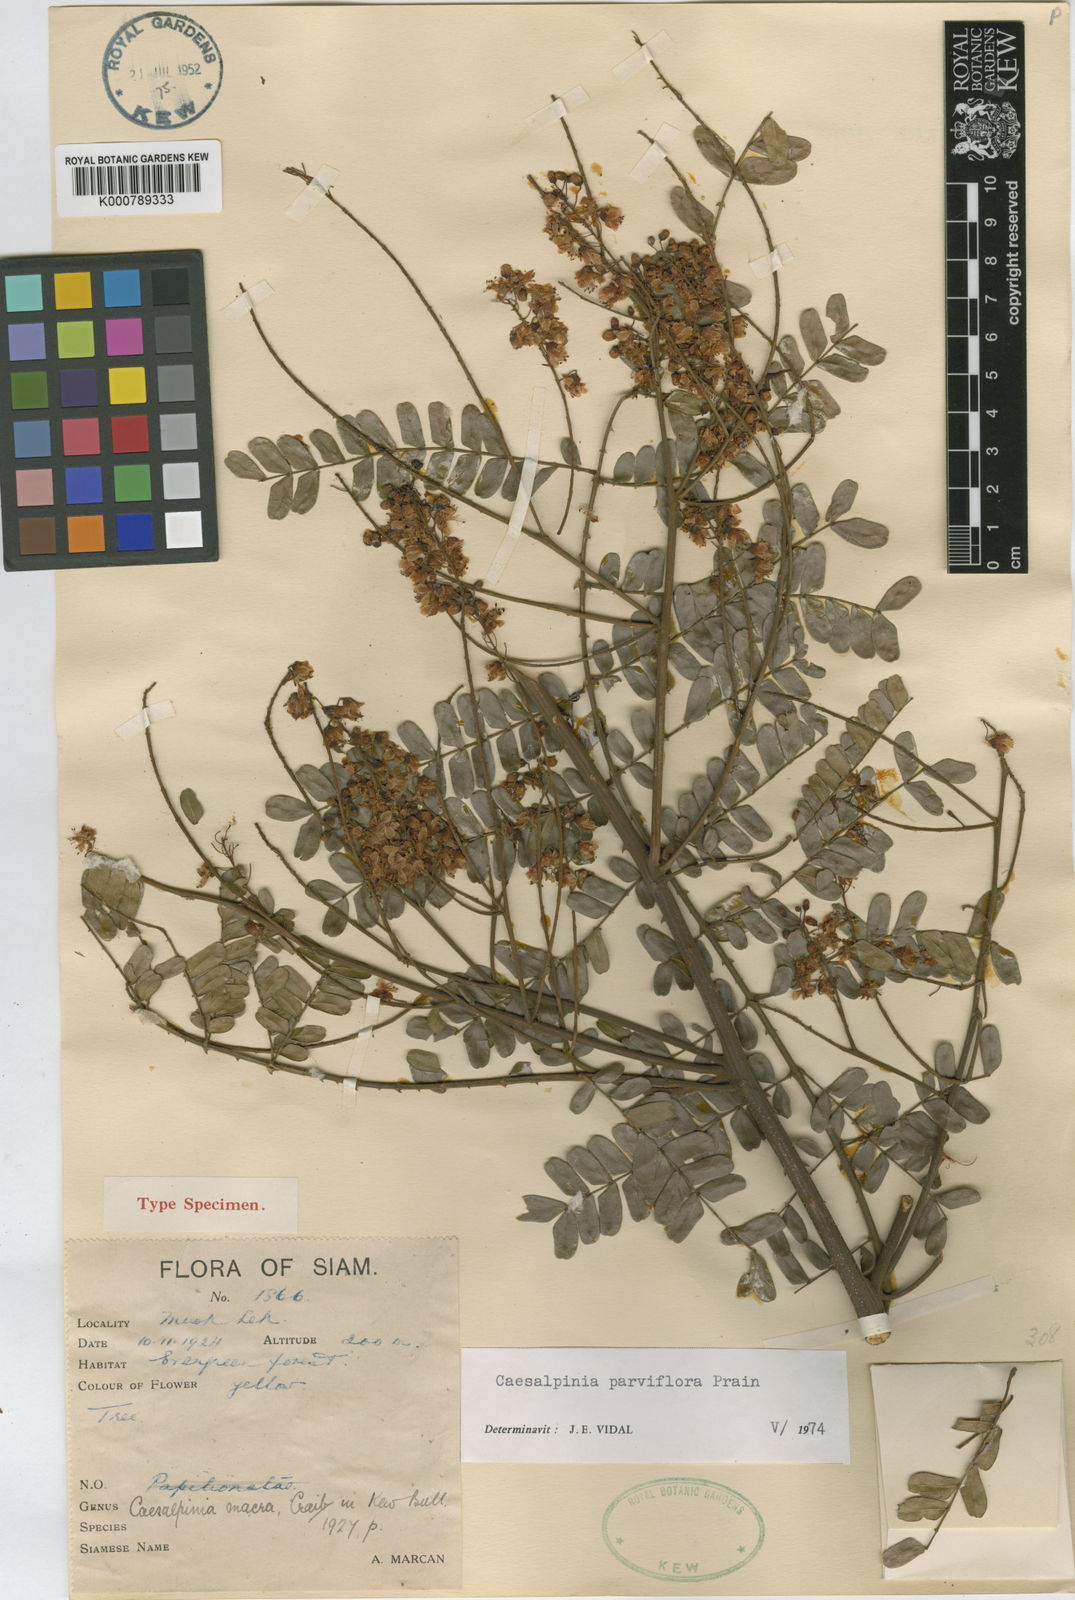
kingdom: Plantae
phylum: Tracheophyta
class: Magnoliopsida
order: Fabales
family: Fabaceae
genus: Caesalpinia
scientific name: Caesalpinia
